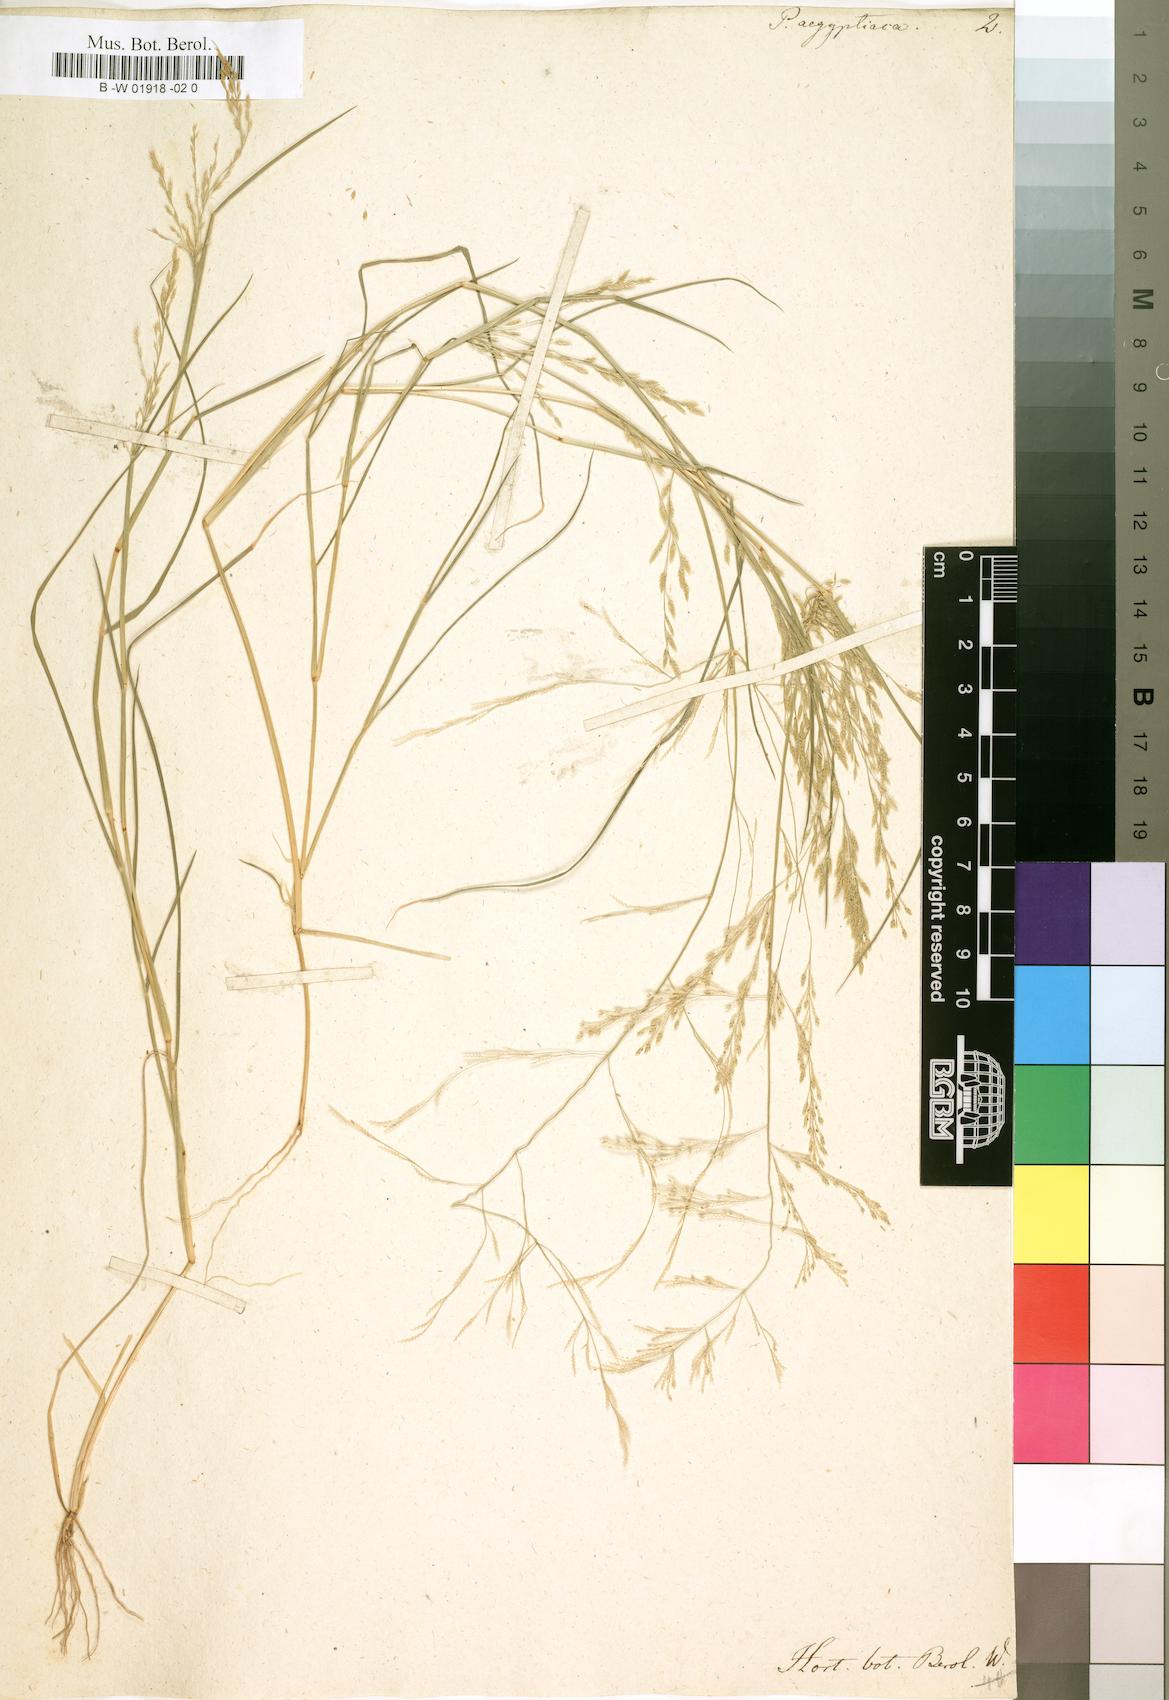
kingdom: Plantae
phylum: Tracheophyta
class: Liliopsida
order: Poales
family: Poaceae
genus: Eragrostis
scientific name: Eragrostis aegyptiaca
